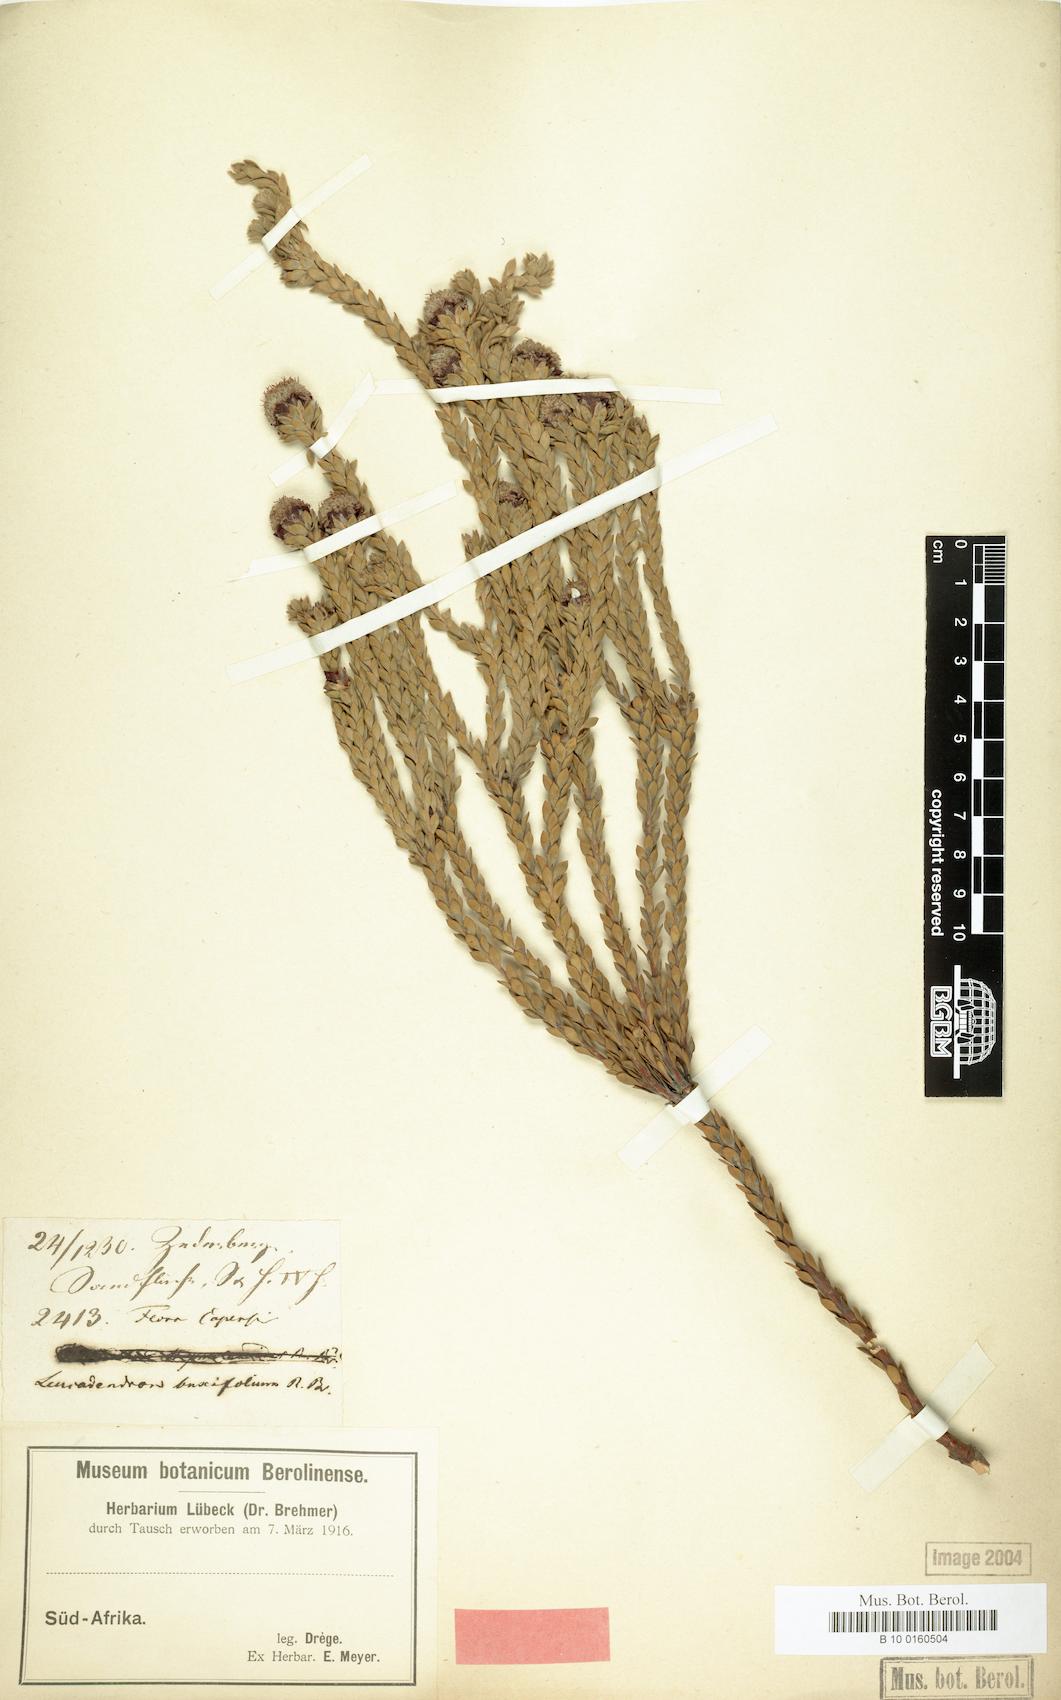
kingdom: Plantae
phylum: Tracheophyta
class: Magnoliopsida
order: Proteales
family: Proteaceae
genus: Leucadendron
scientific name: Leucadendron dubium
